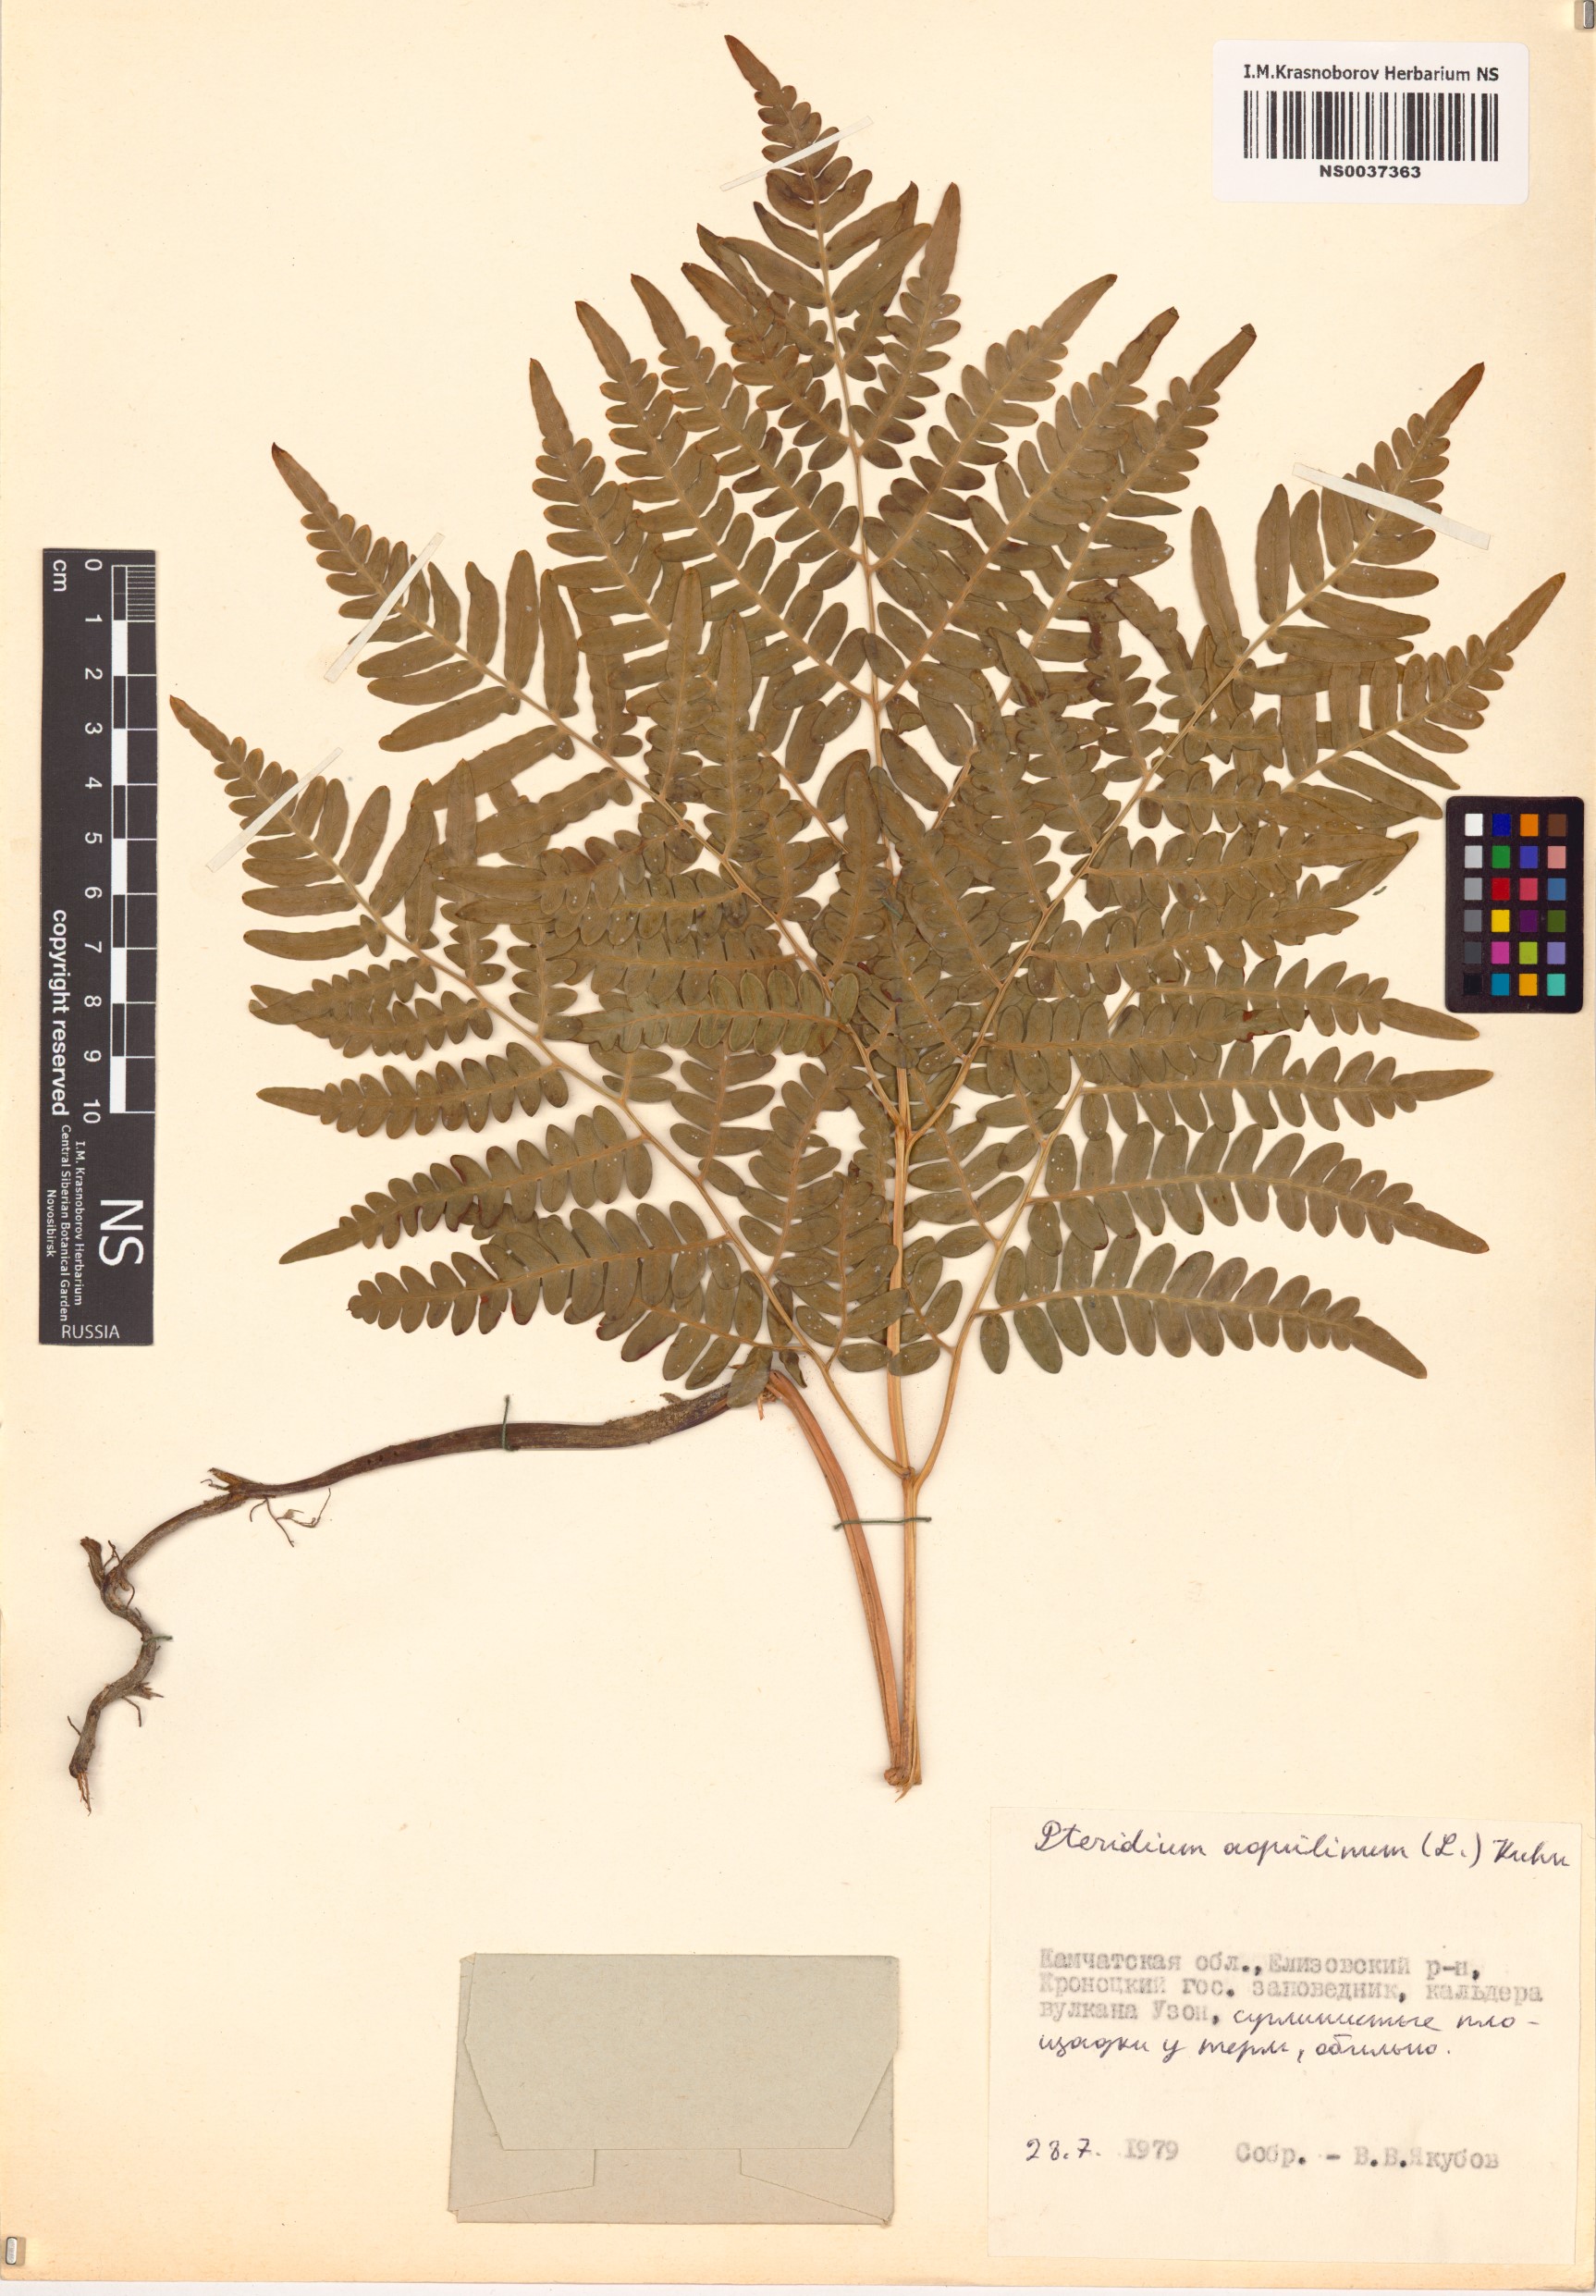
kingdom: Plantae
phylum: Tracheophyta
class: Polypodiopsida
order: Polypodiales
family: Dennstaedtiaceae
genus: Pteridium
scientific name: Pteridium aquilinum
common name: Bracken
